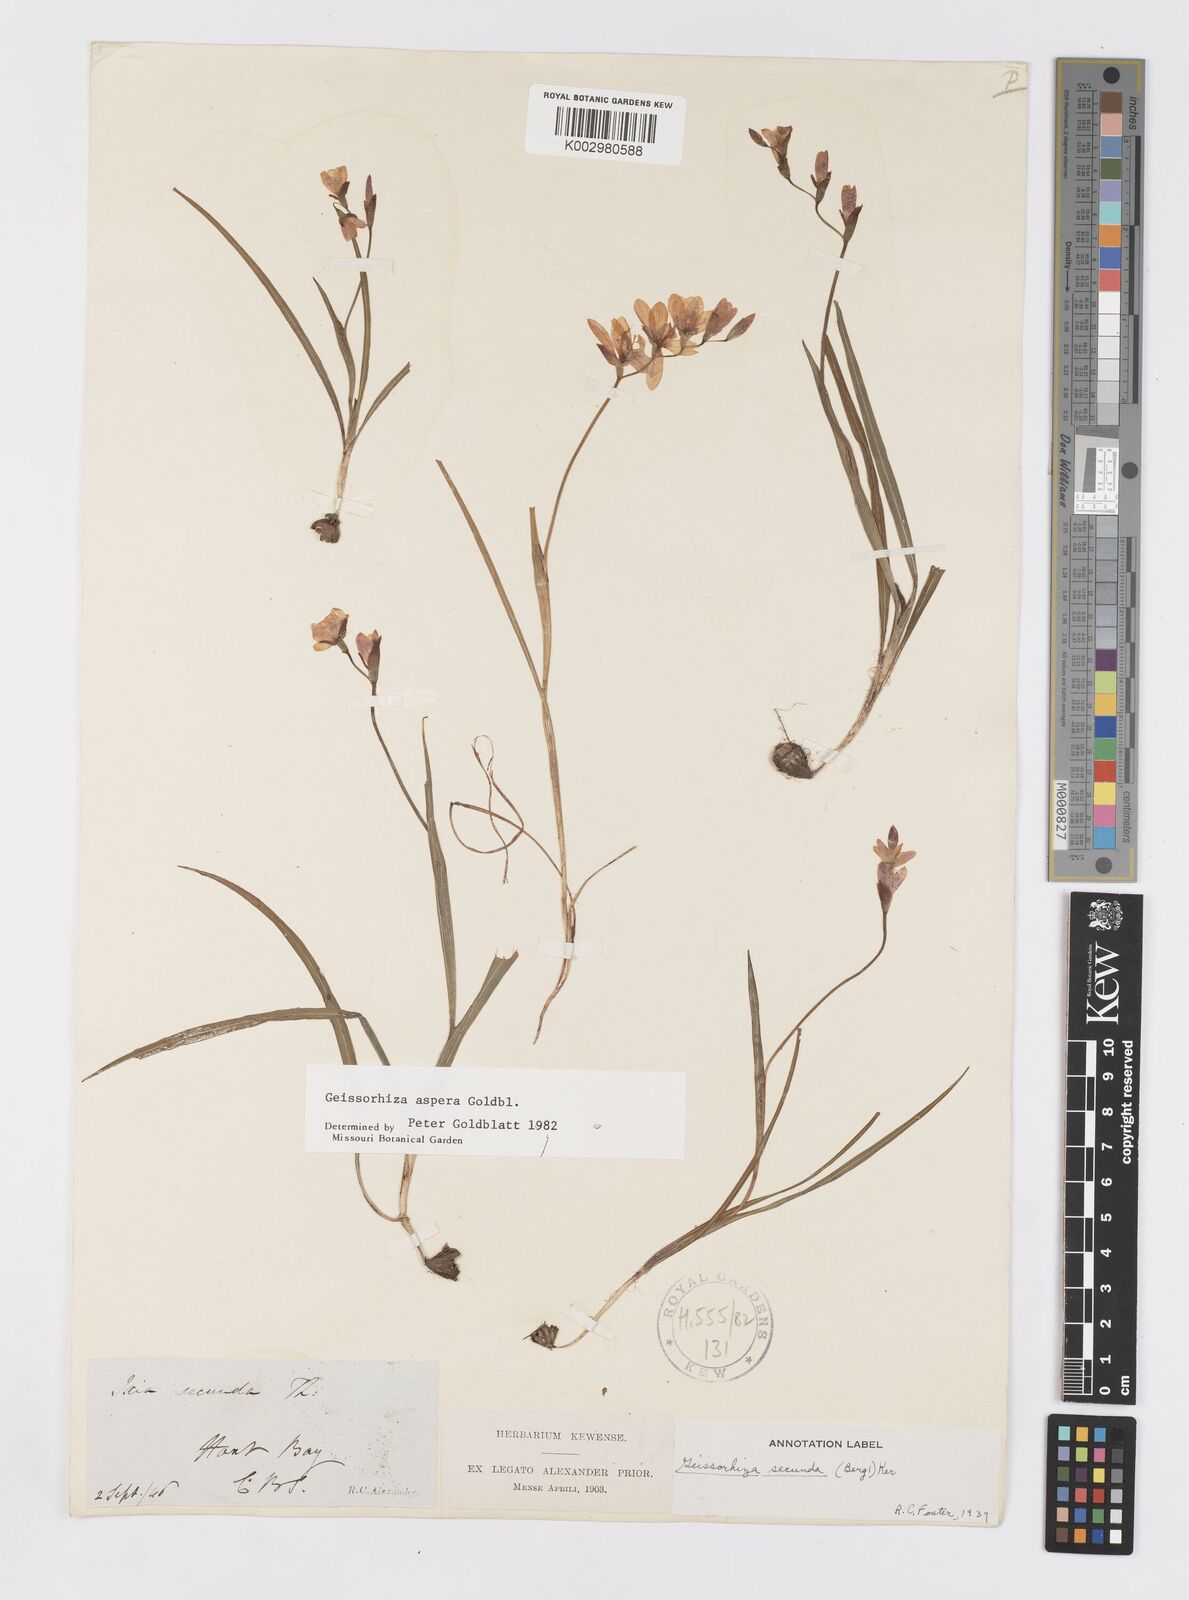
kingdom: Plantae
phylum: Tracheophyta
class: Liliopsida
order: Asparagales
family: Iridaceae
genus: Geissorhiza
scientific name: Geissorhiza aspera
